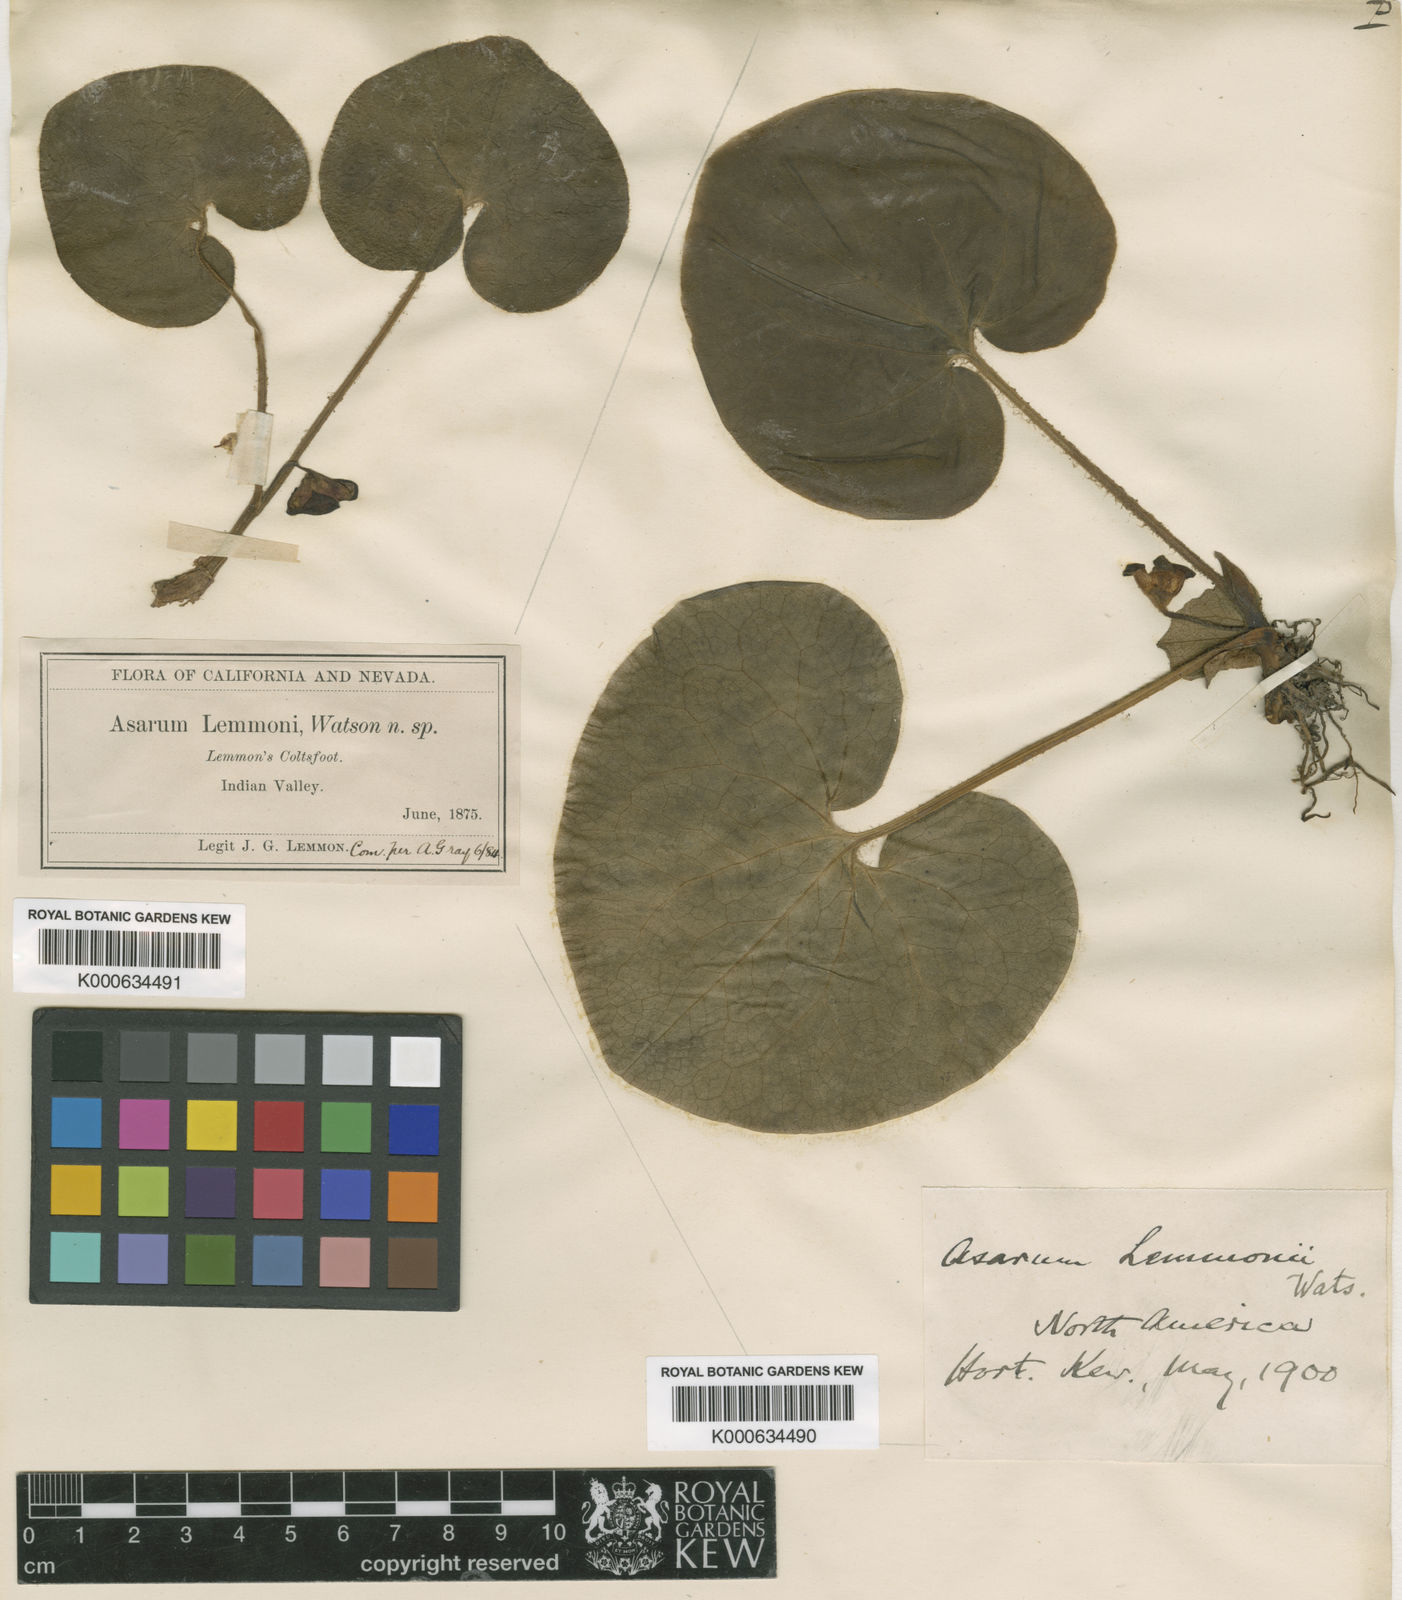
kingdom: Plantae
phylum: Tracheophyta
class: Magnoliopsida
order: Piperales
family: Aristolochiaceae
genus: Asarum
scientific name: Asarum lemmonii
